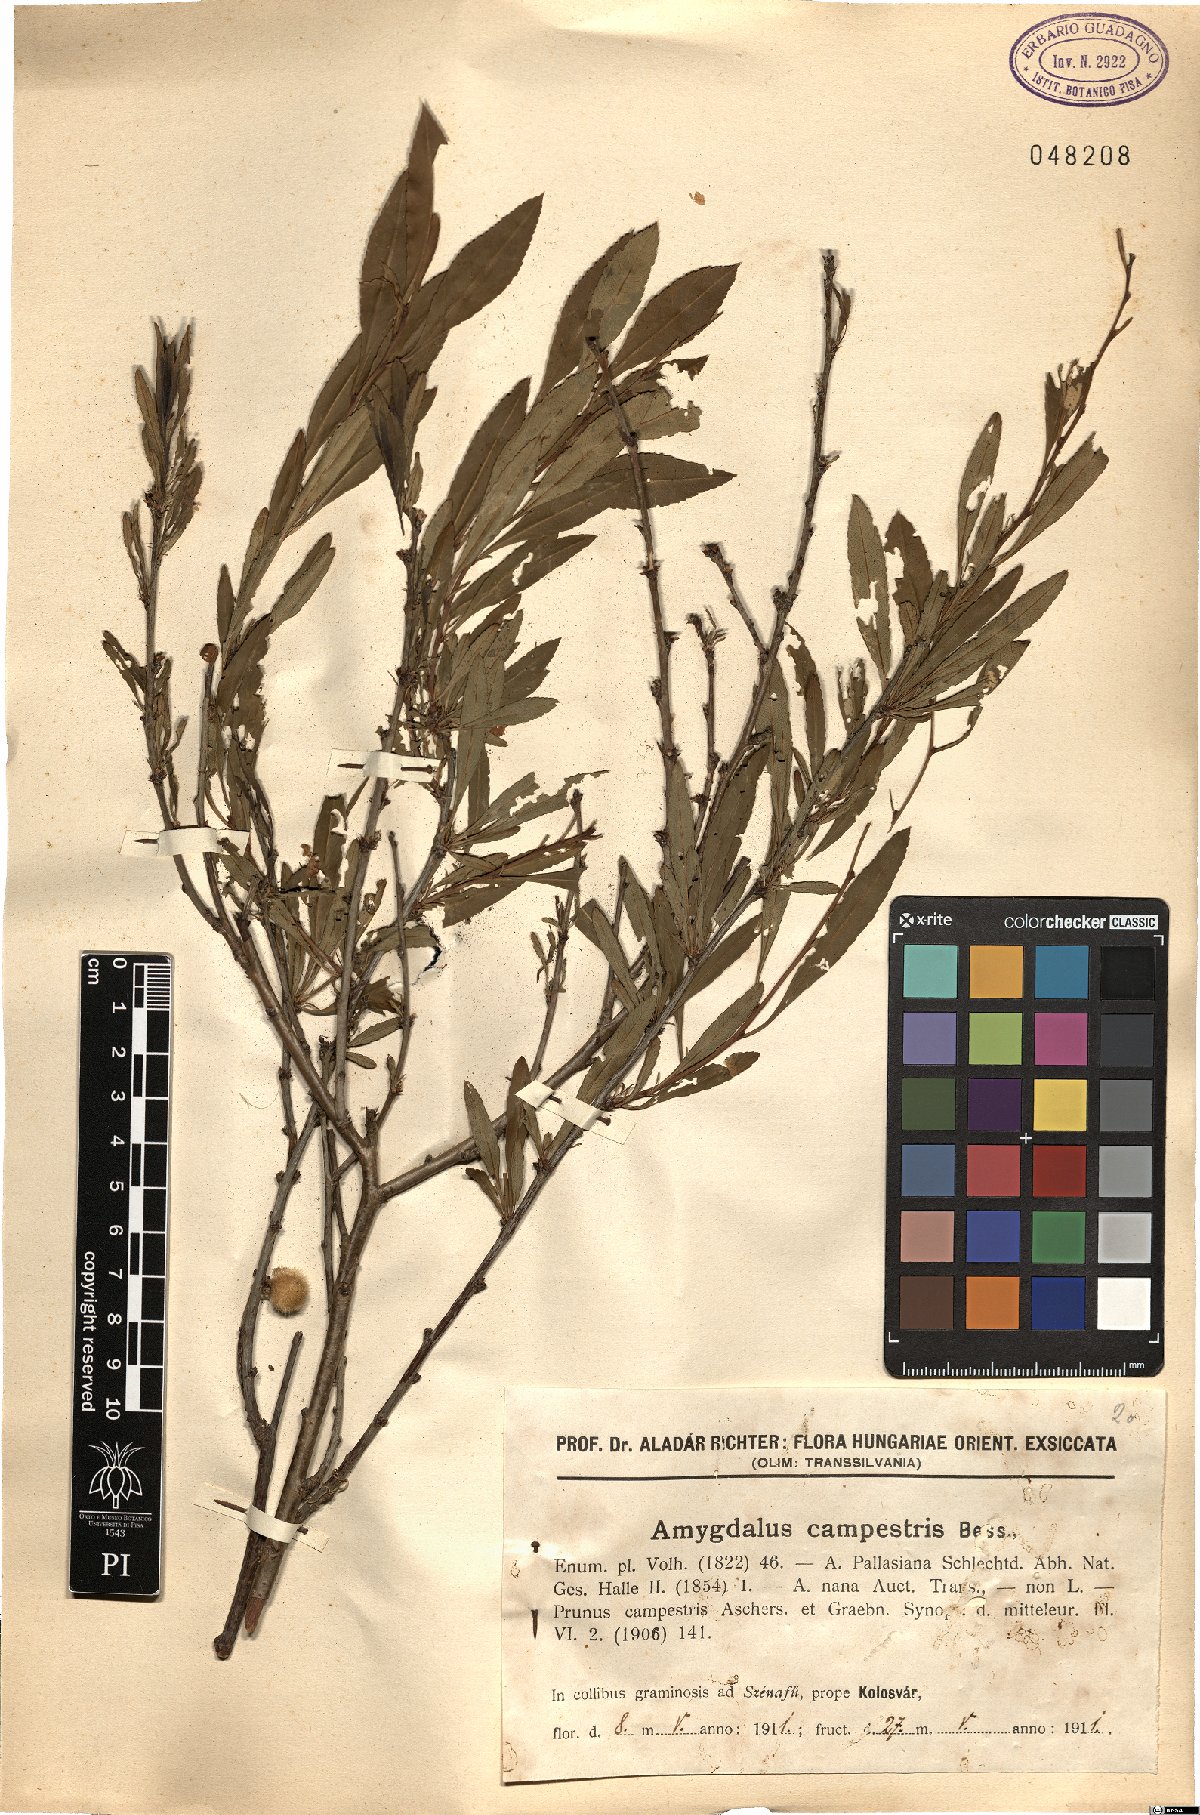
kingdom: Plantae
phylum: Tracheophyta
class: Magnoliopsida
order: Rosales
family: Rosaceae
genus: Prunus
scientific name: Prunus tenella
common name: Dwarf russian almond
